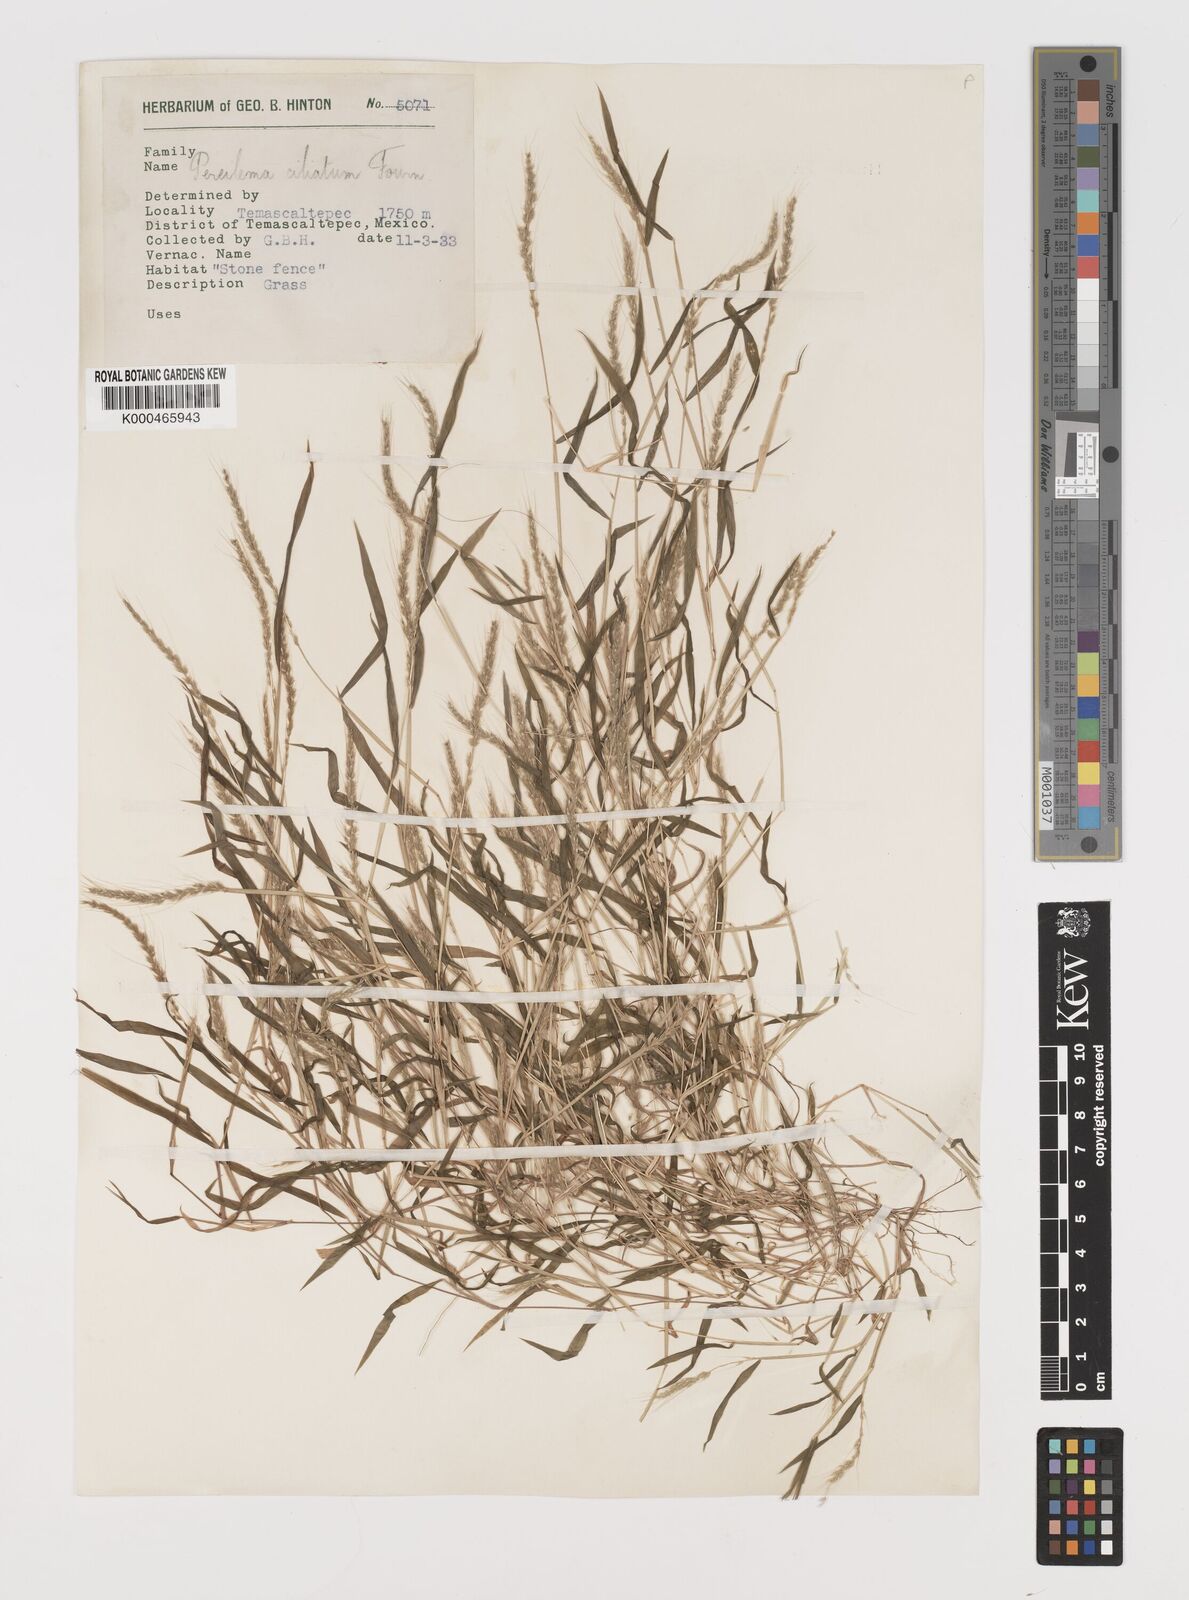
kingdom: Plantae
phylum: Tracheophyta
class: Liliopsida
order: Poales
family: Poaceae
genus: Muhlenbergia
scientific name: Muhlenbergia plumiseta
